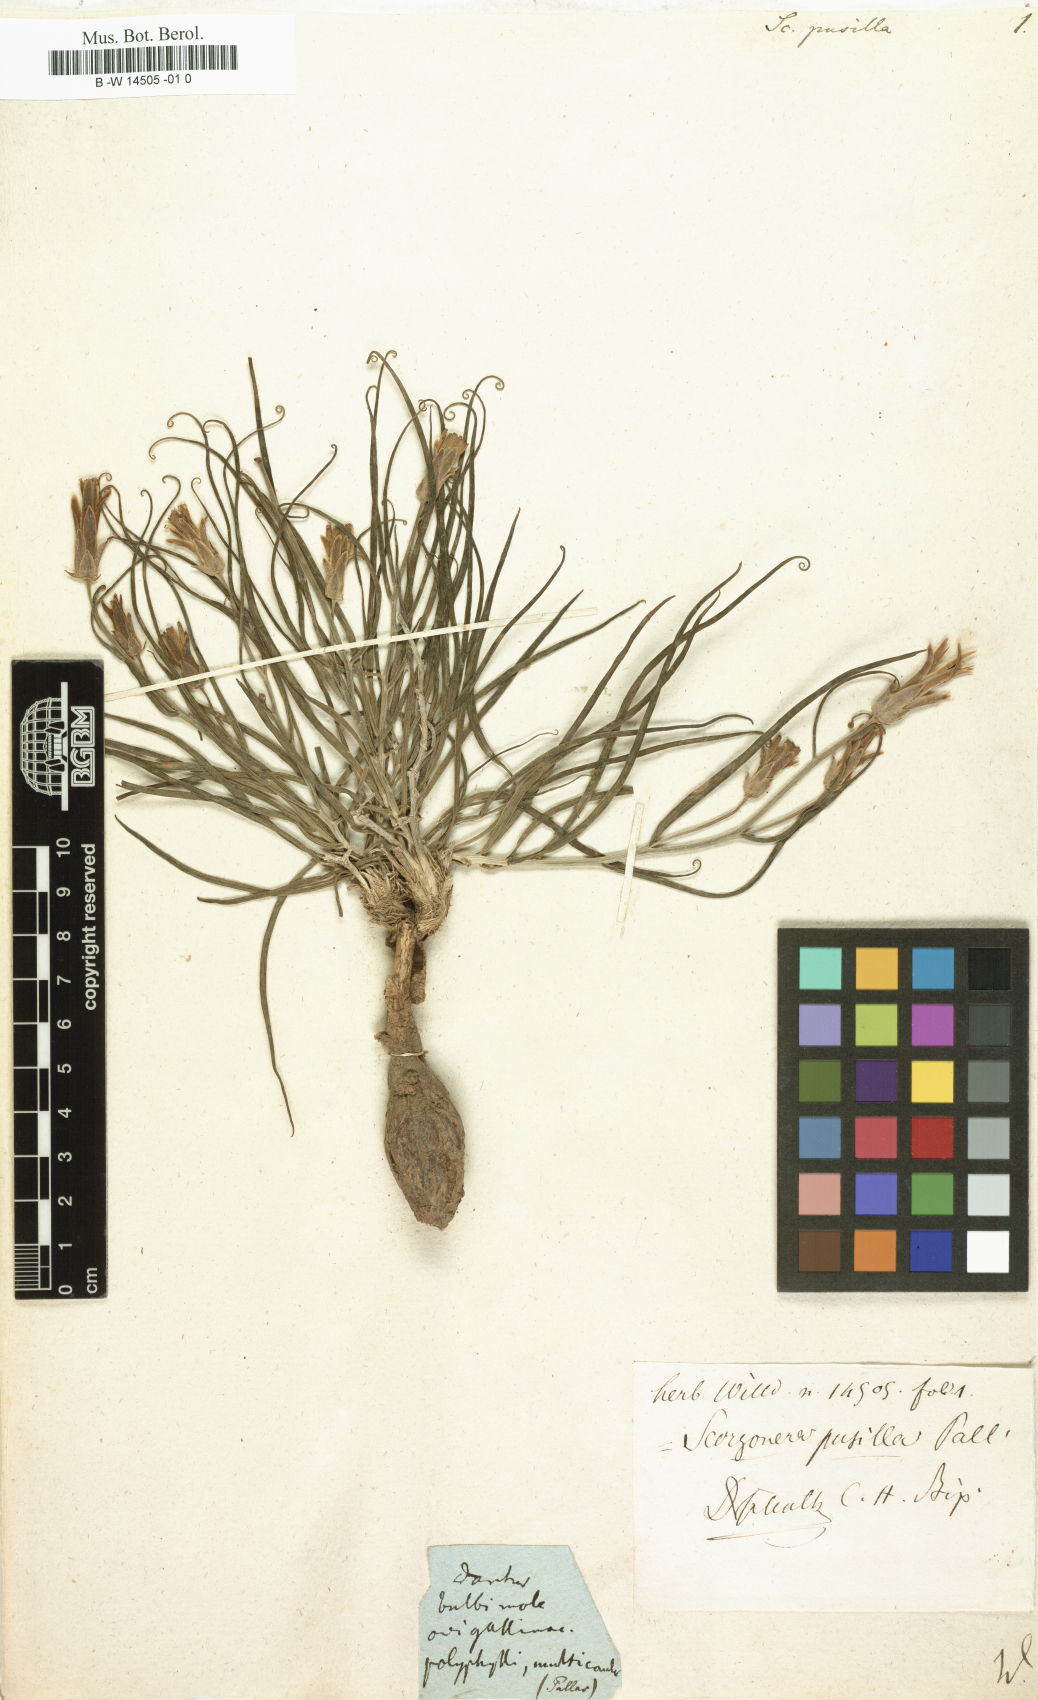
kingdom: Plantae
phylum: Tracheophyta
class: Magnoliopsida
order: Asterales
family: Asteraceae
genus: Takhtajaniantha
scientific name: Takhtajaniantha pusilla
